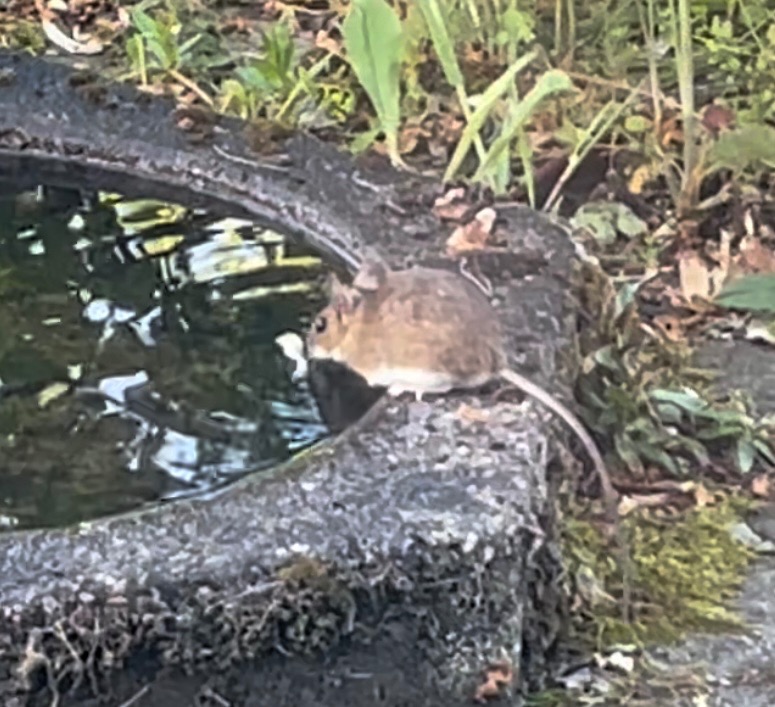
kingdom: Animalia
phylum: Chordata
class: Mammalia
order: Rodentia
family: Muridae
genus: Apodemus
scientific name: Apodemus flavicollis
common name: Halsbåndmus
